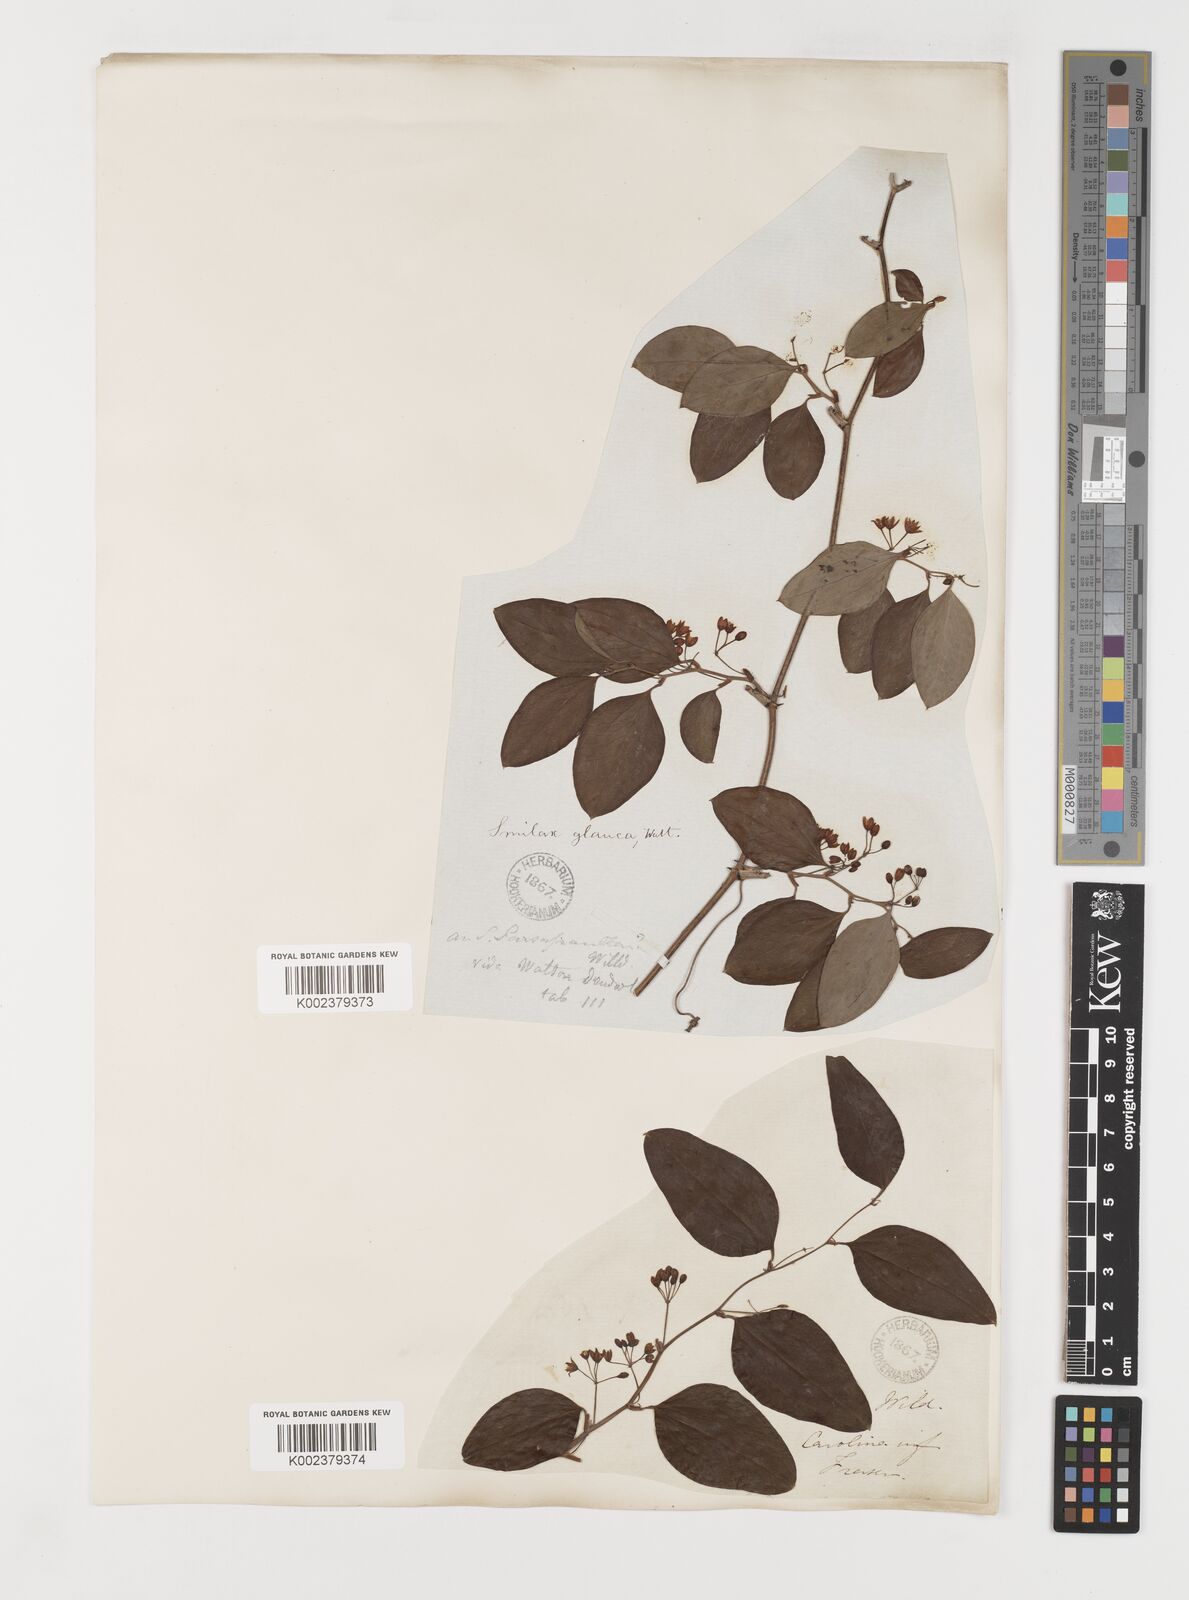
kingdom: Plantae
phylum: Tracheophyta
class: Liliopsida
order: Liliales
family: Smilacaceae
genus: Smilax
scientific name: Smilax glauca
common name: Cat greenbrier
